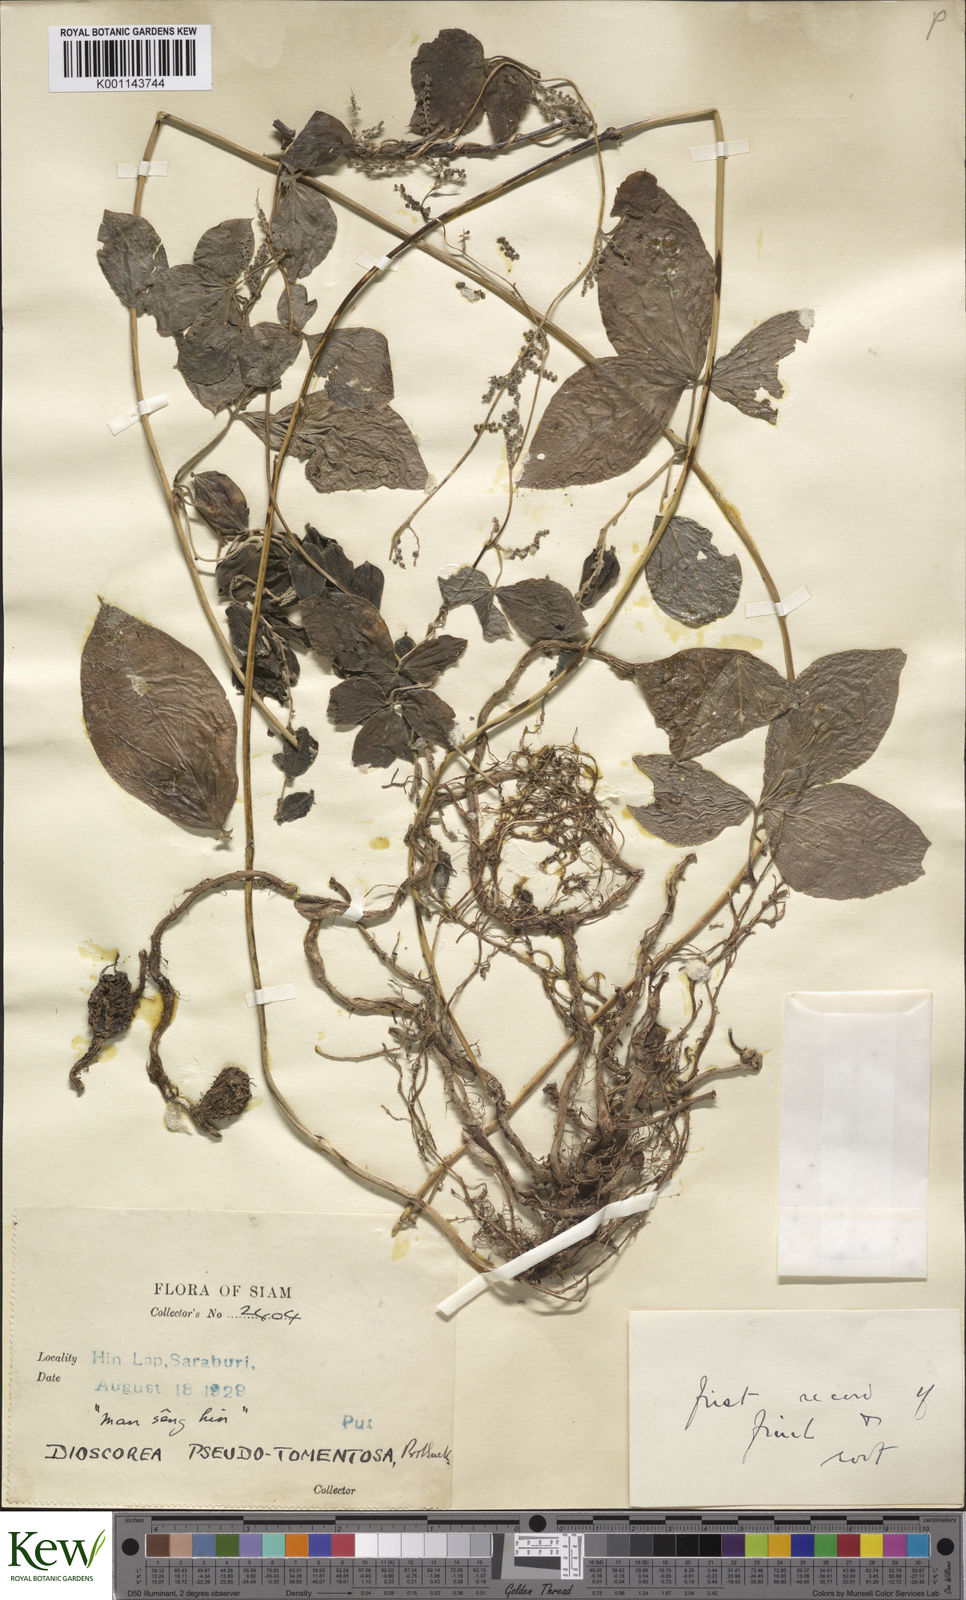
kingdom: Plantae
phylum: Tracheophyta
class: Liliopsida
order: Dioscoreales
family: Dioscoreaceae
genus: Dioscorea
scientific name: Dioscorea pseudotomentosa
